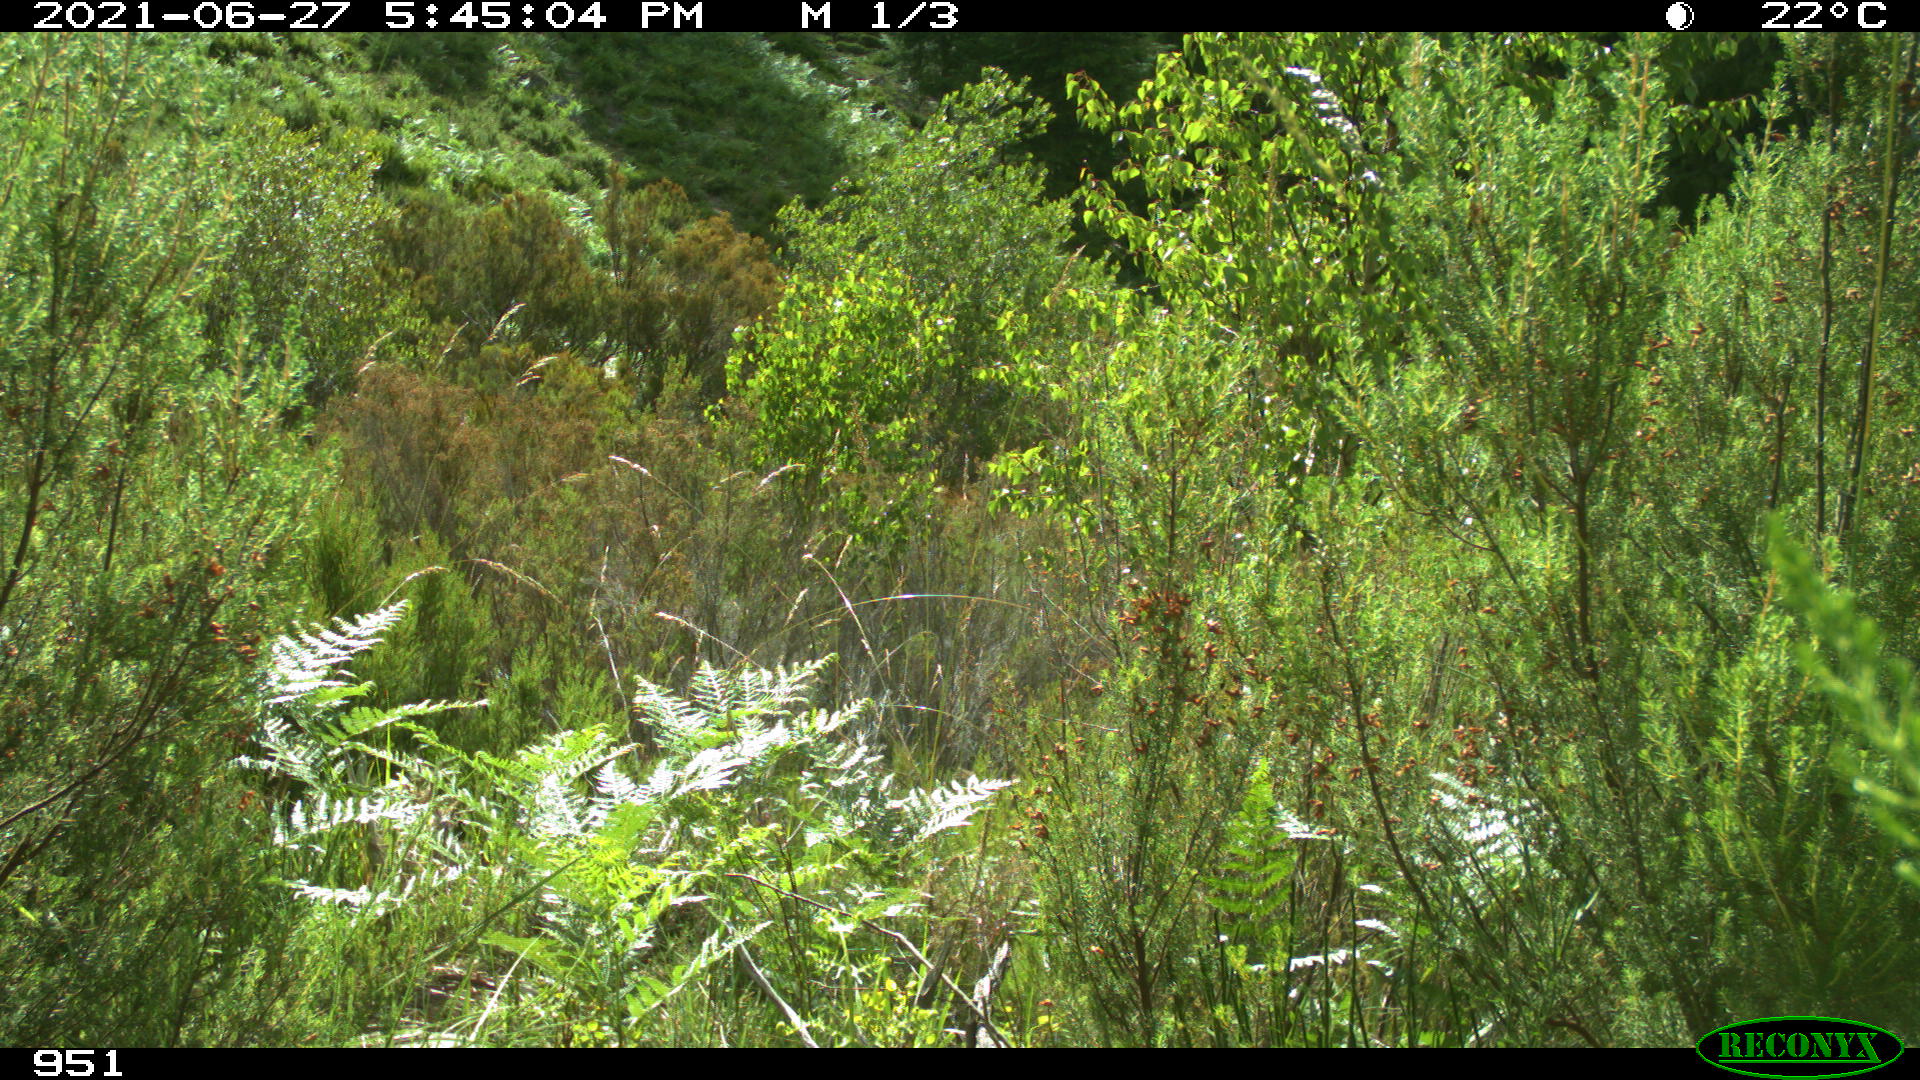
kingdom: Animalia
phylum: Chordata
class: Mammalia
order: Perissodactyla
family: Equidae
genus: Equus
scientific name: Equus caballus
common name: Horse
